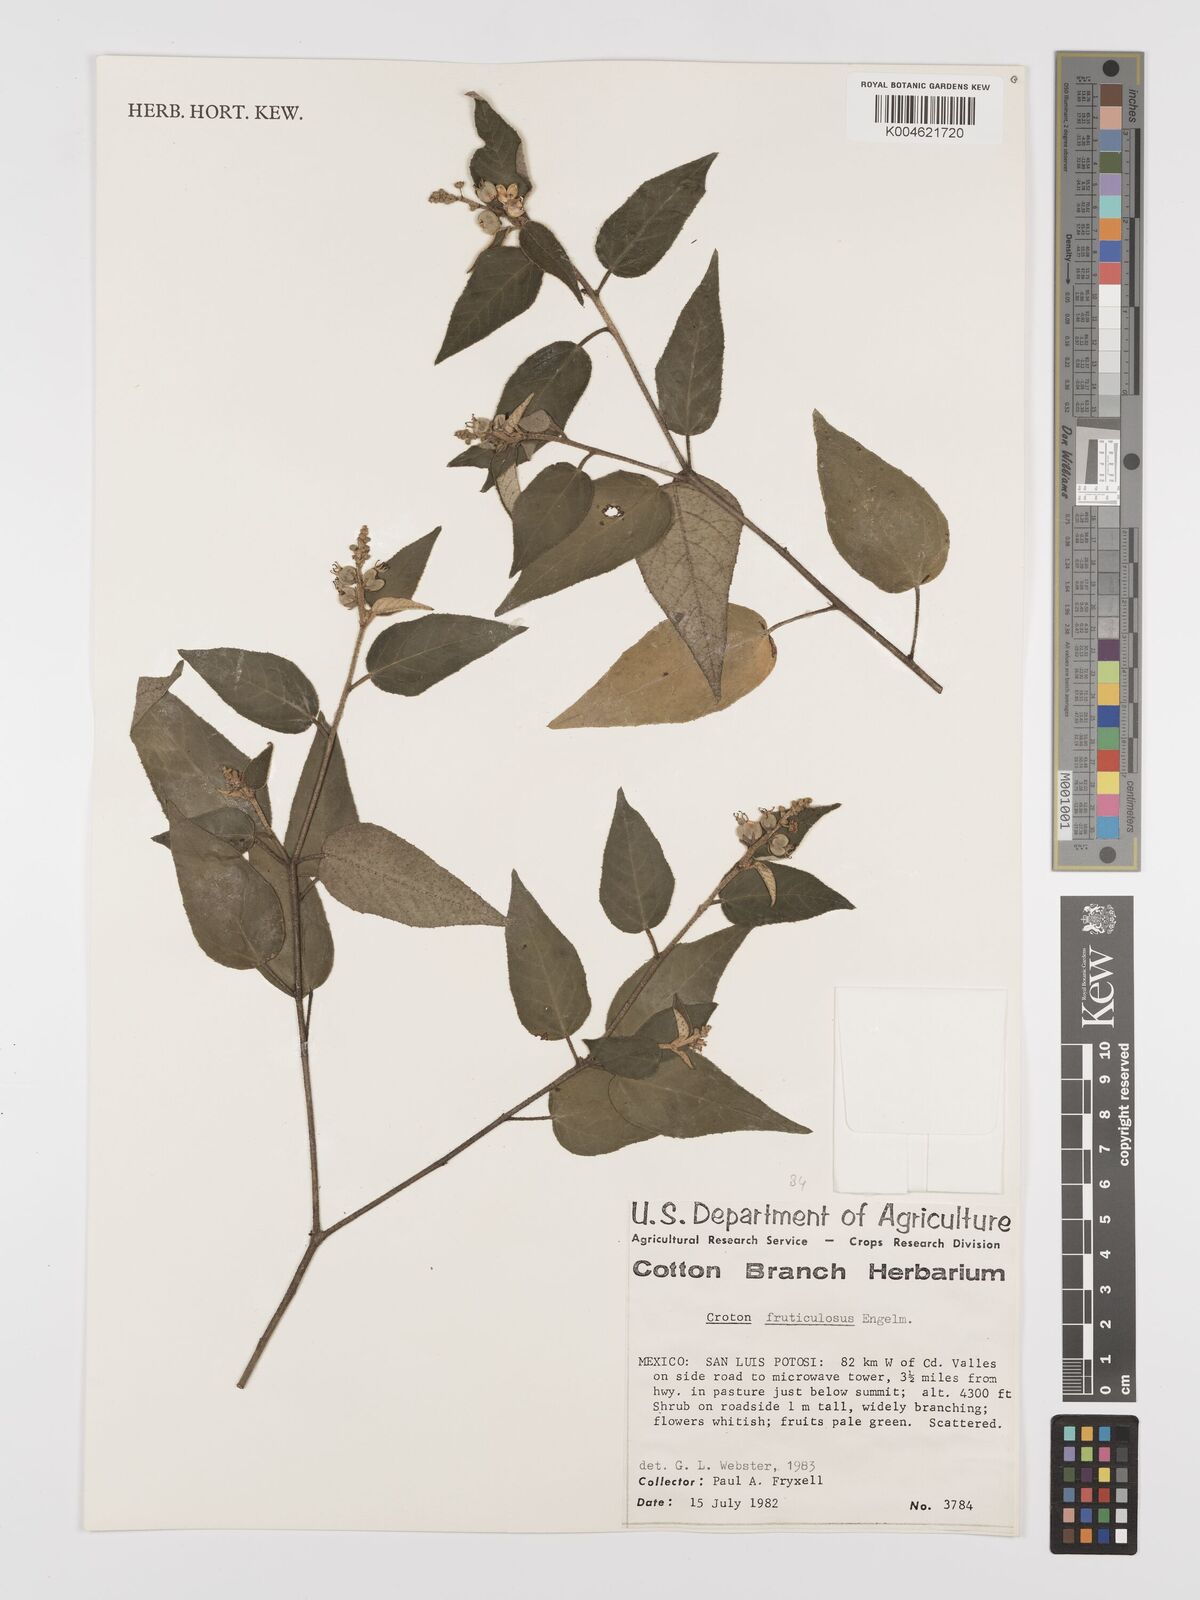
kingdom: Plantae
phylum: Tracheophyta
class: Magnoliopsida
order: Malpighiales
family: Euphorbiaceae
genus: Croton
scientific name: Croton fruticulosus
